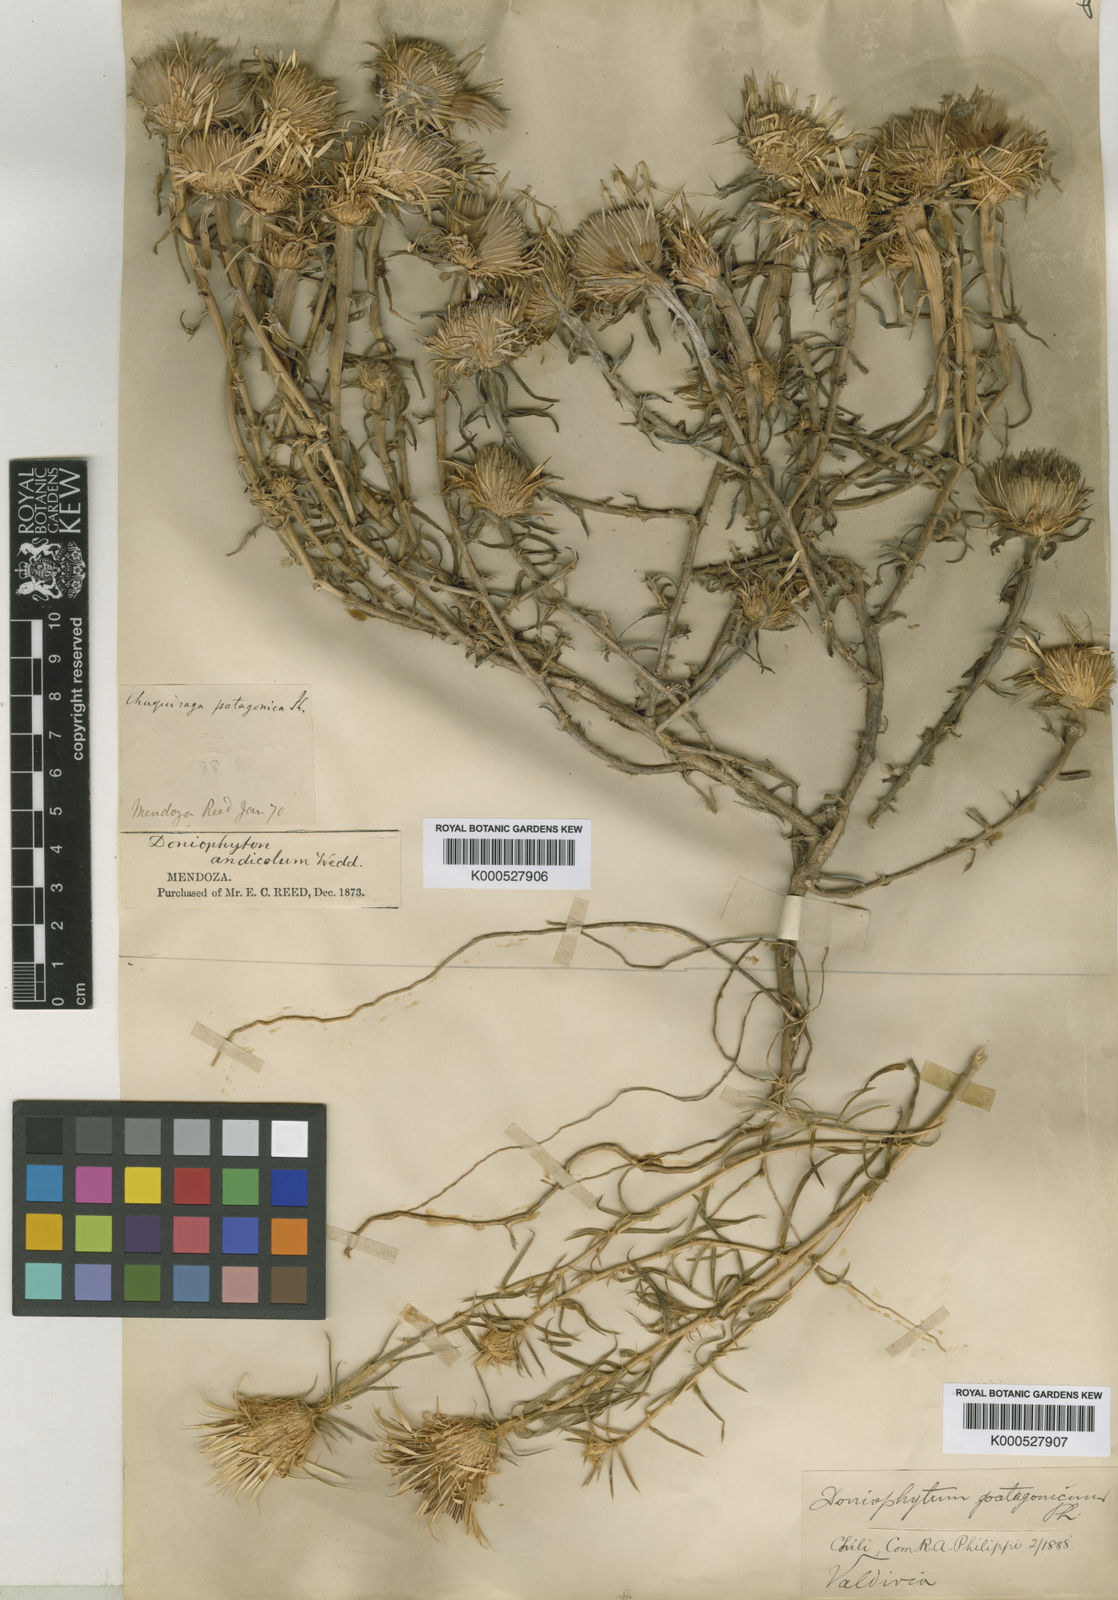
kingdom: Plantae
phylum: Tracheophyta
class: Magnoliopsida
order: Asterales
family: Asteraceae
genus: Doniophyton
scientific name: Doniophyton anomalum
